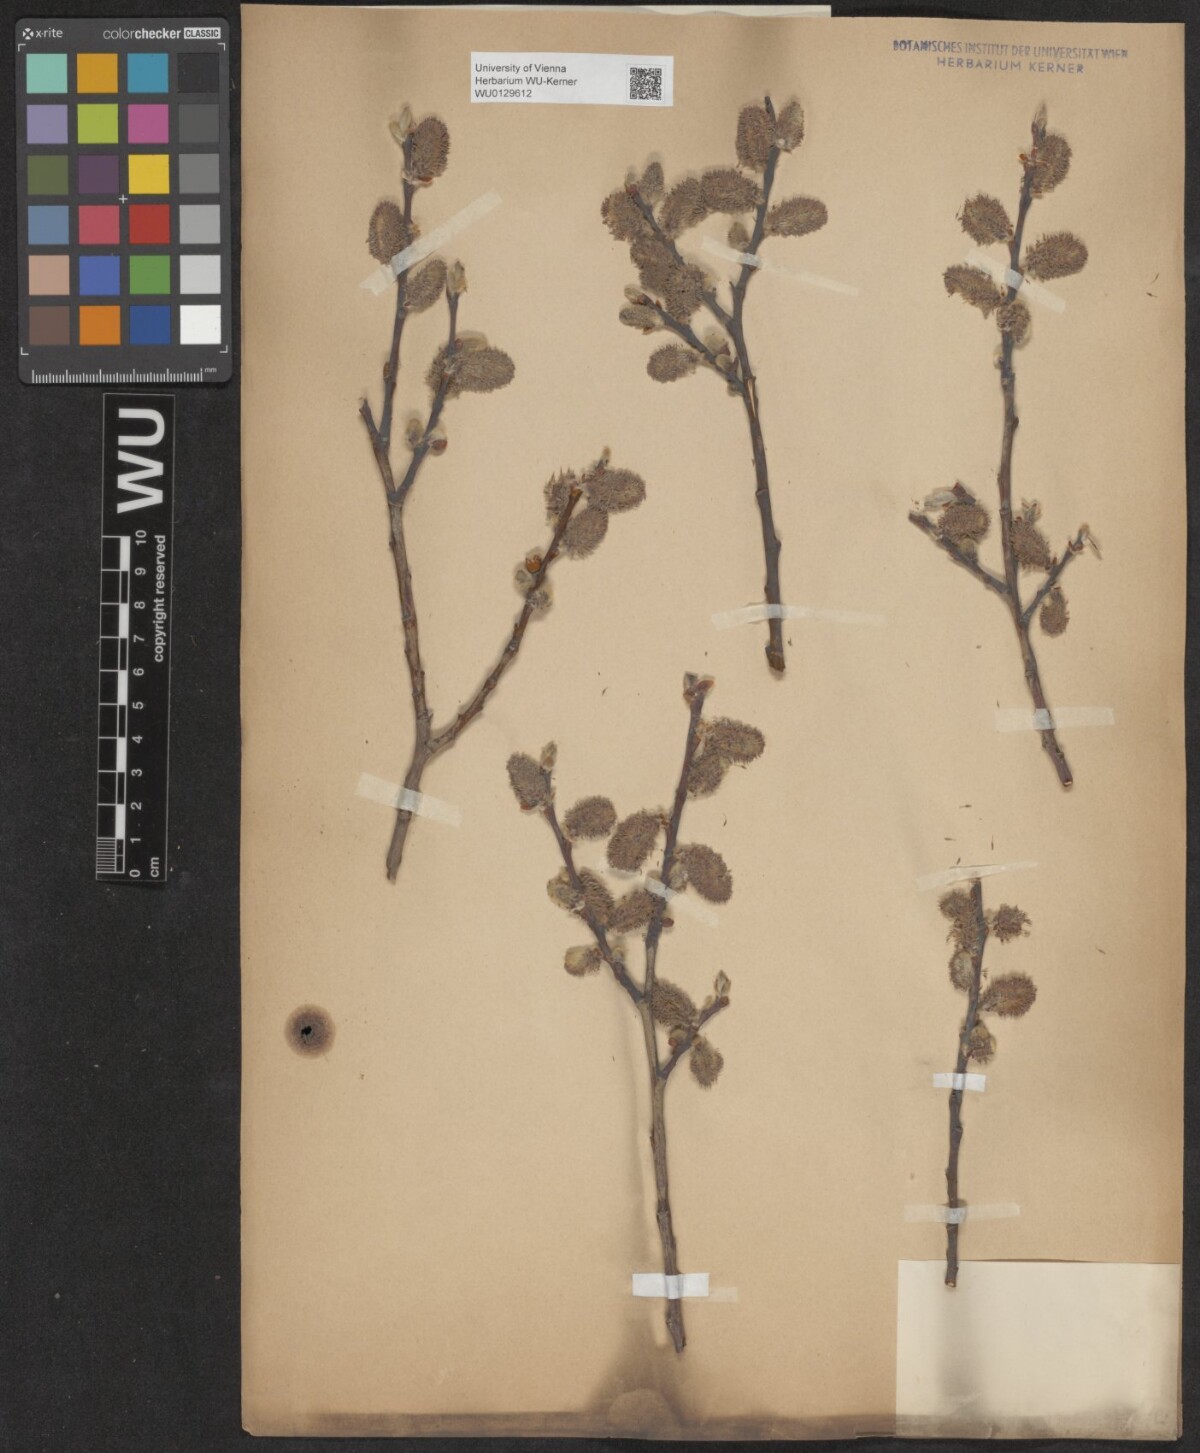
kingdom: Plantae
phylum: Tracheophyta
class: Magnoliopsida
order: Malpighiales
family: Salicaceae
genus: Salix
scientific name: Salix caprea
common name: Goat willow
